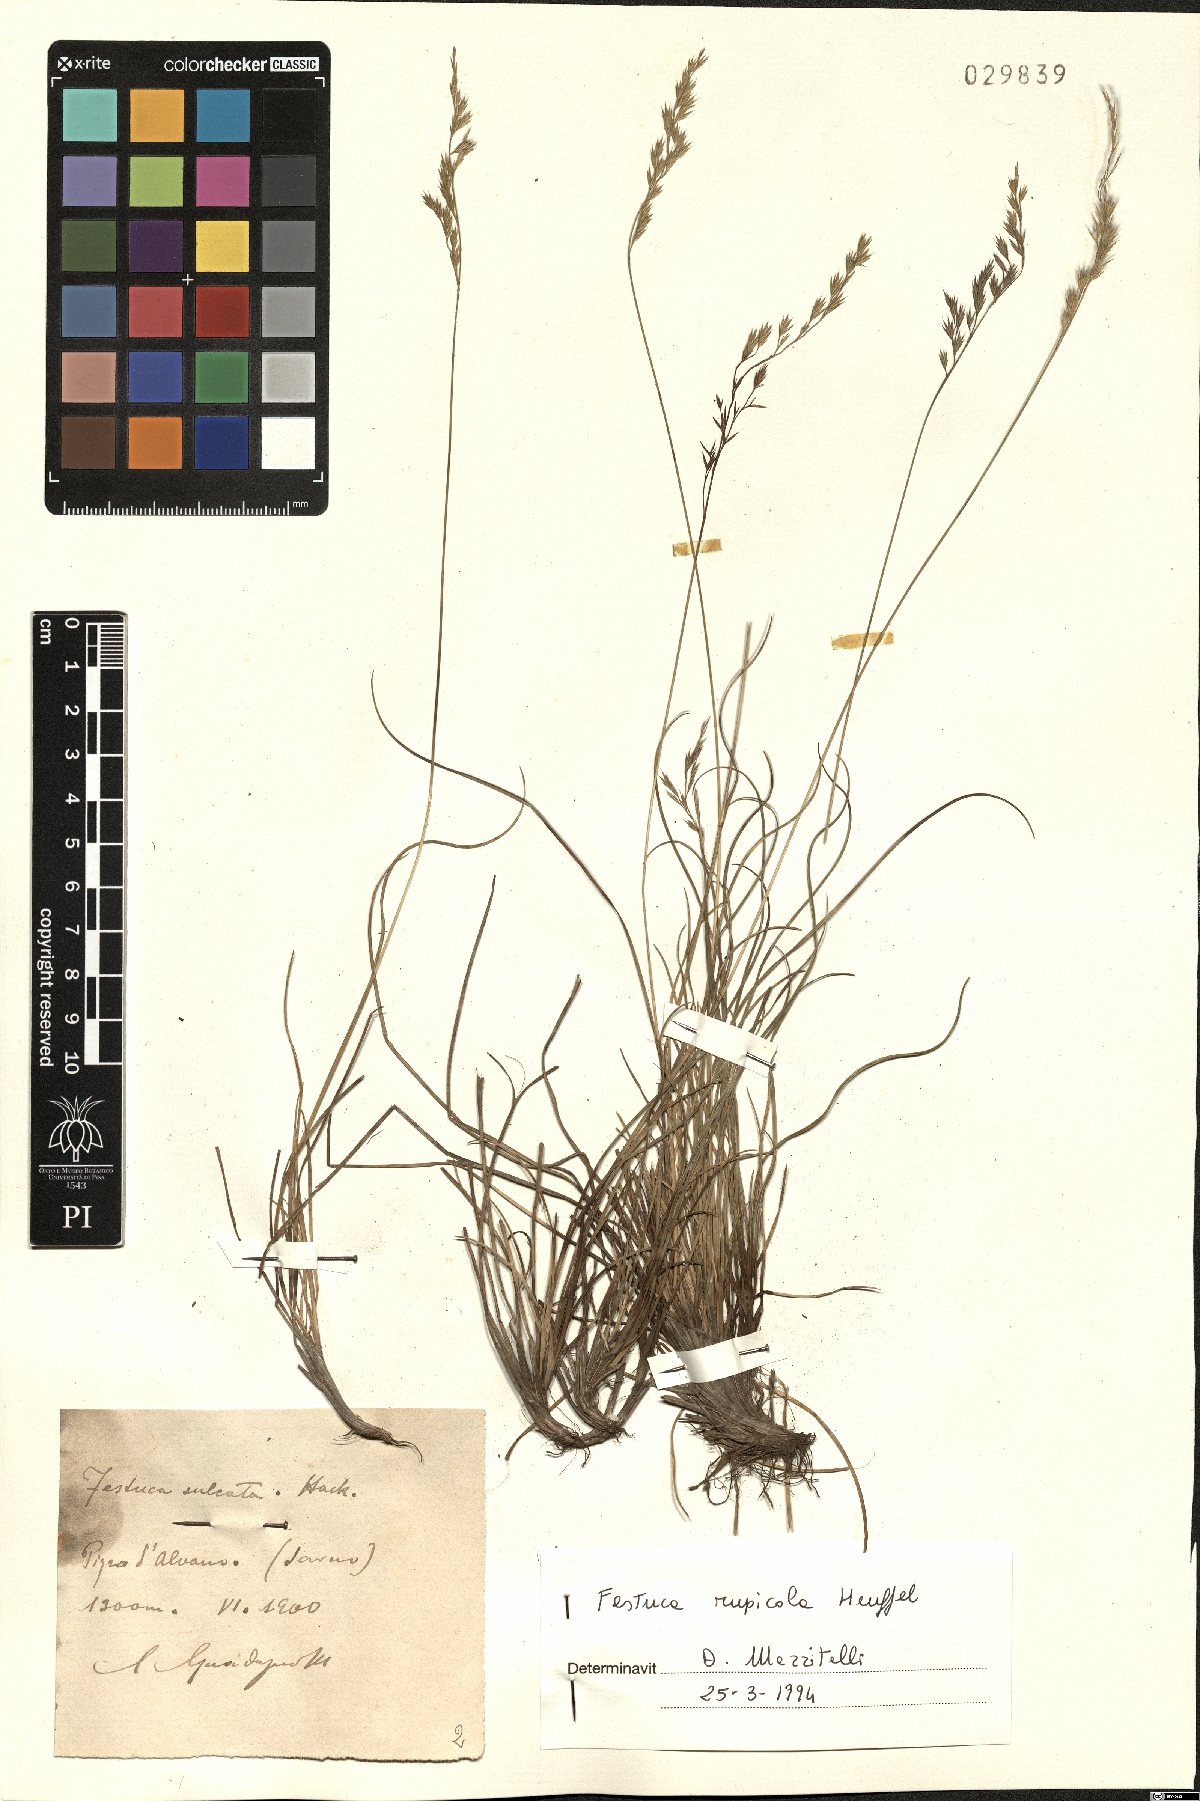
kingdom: Plantae
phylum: Tracheophyta
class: Liliopsida
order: Poales
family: Poaceae
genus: Festuca
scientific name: Festuca rupicola
